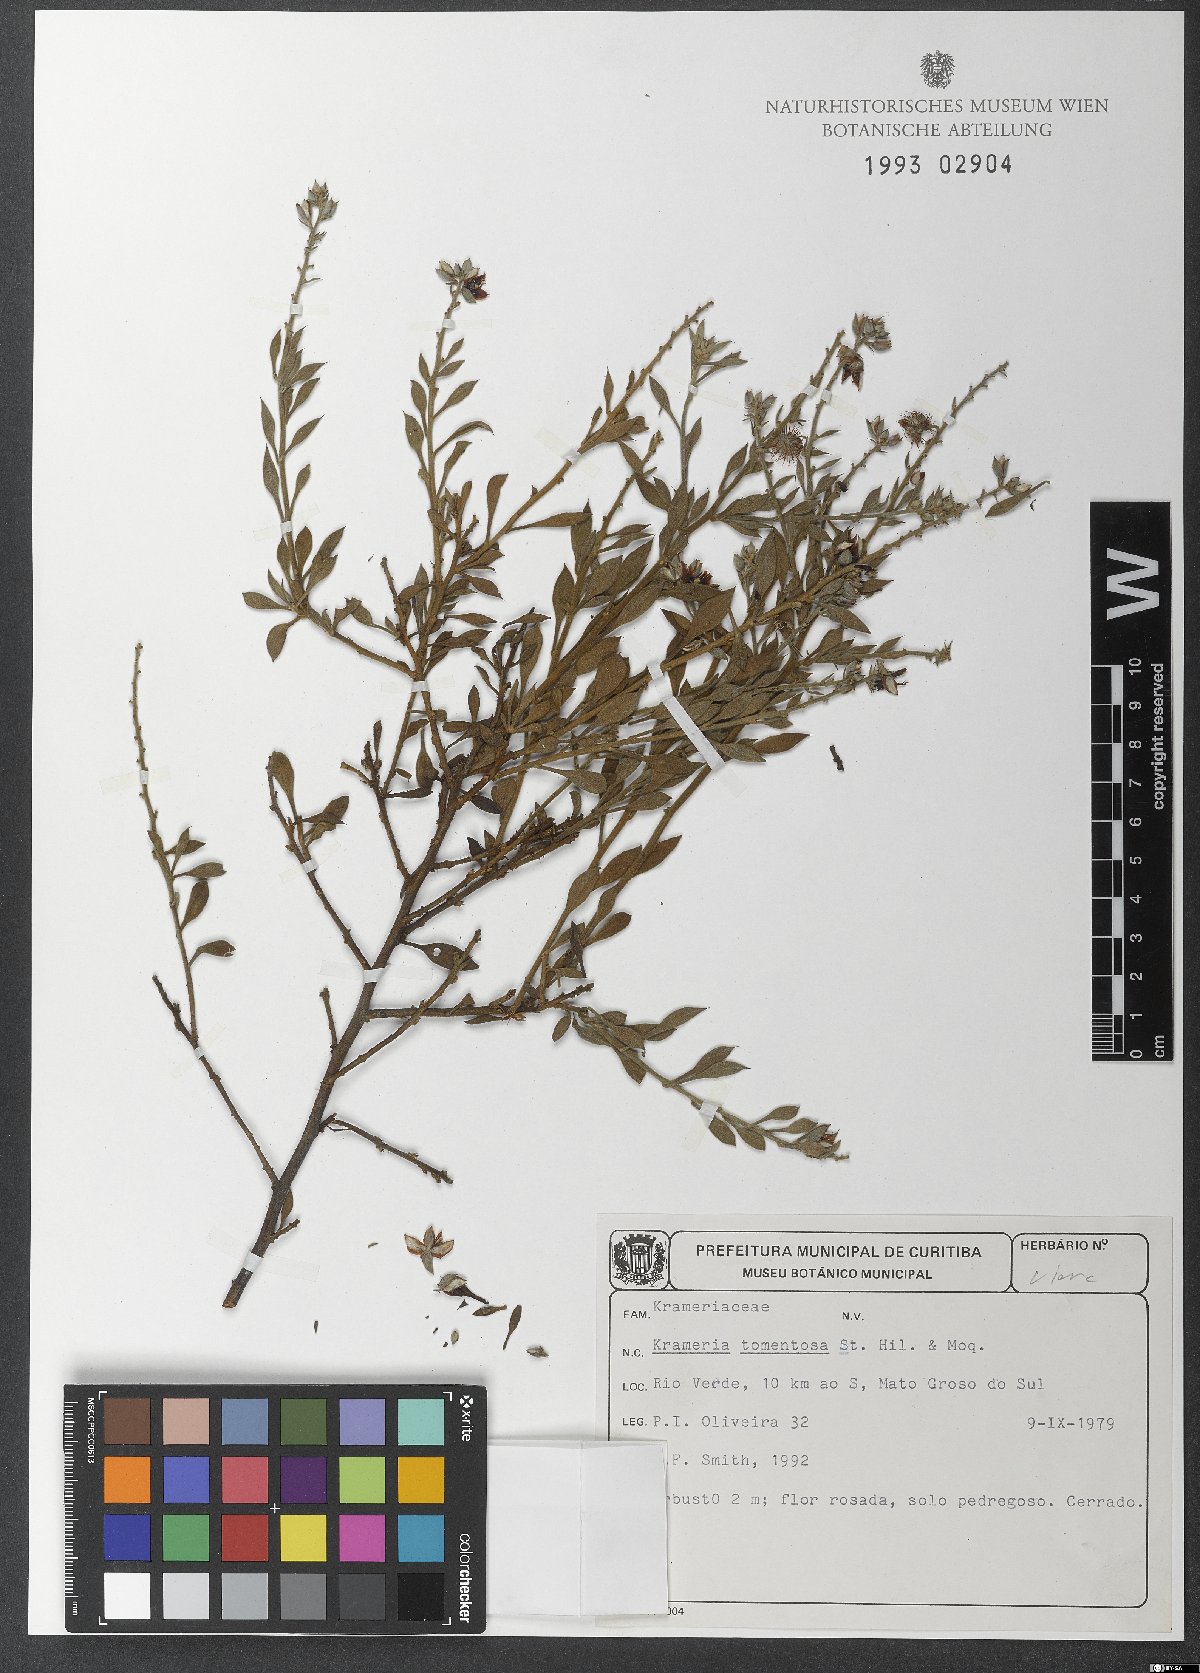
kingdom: Plantae
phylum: Tracheophyta
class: Magnoliopsida
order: Zygophyllales
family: Krameriaceae
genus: Krameria
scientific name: Krameria tomentosa
